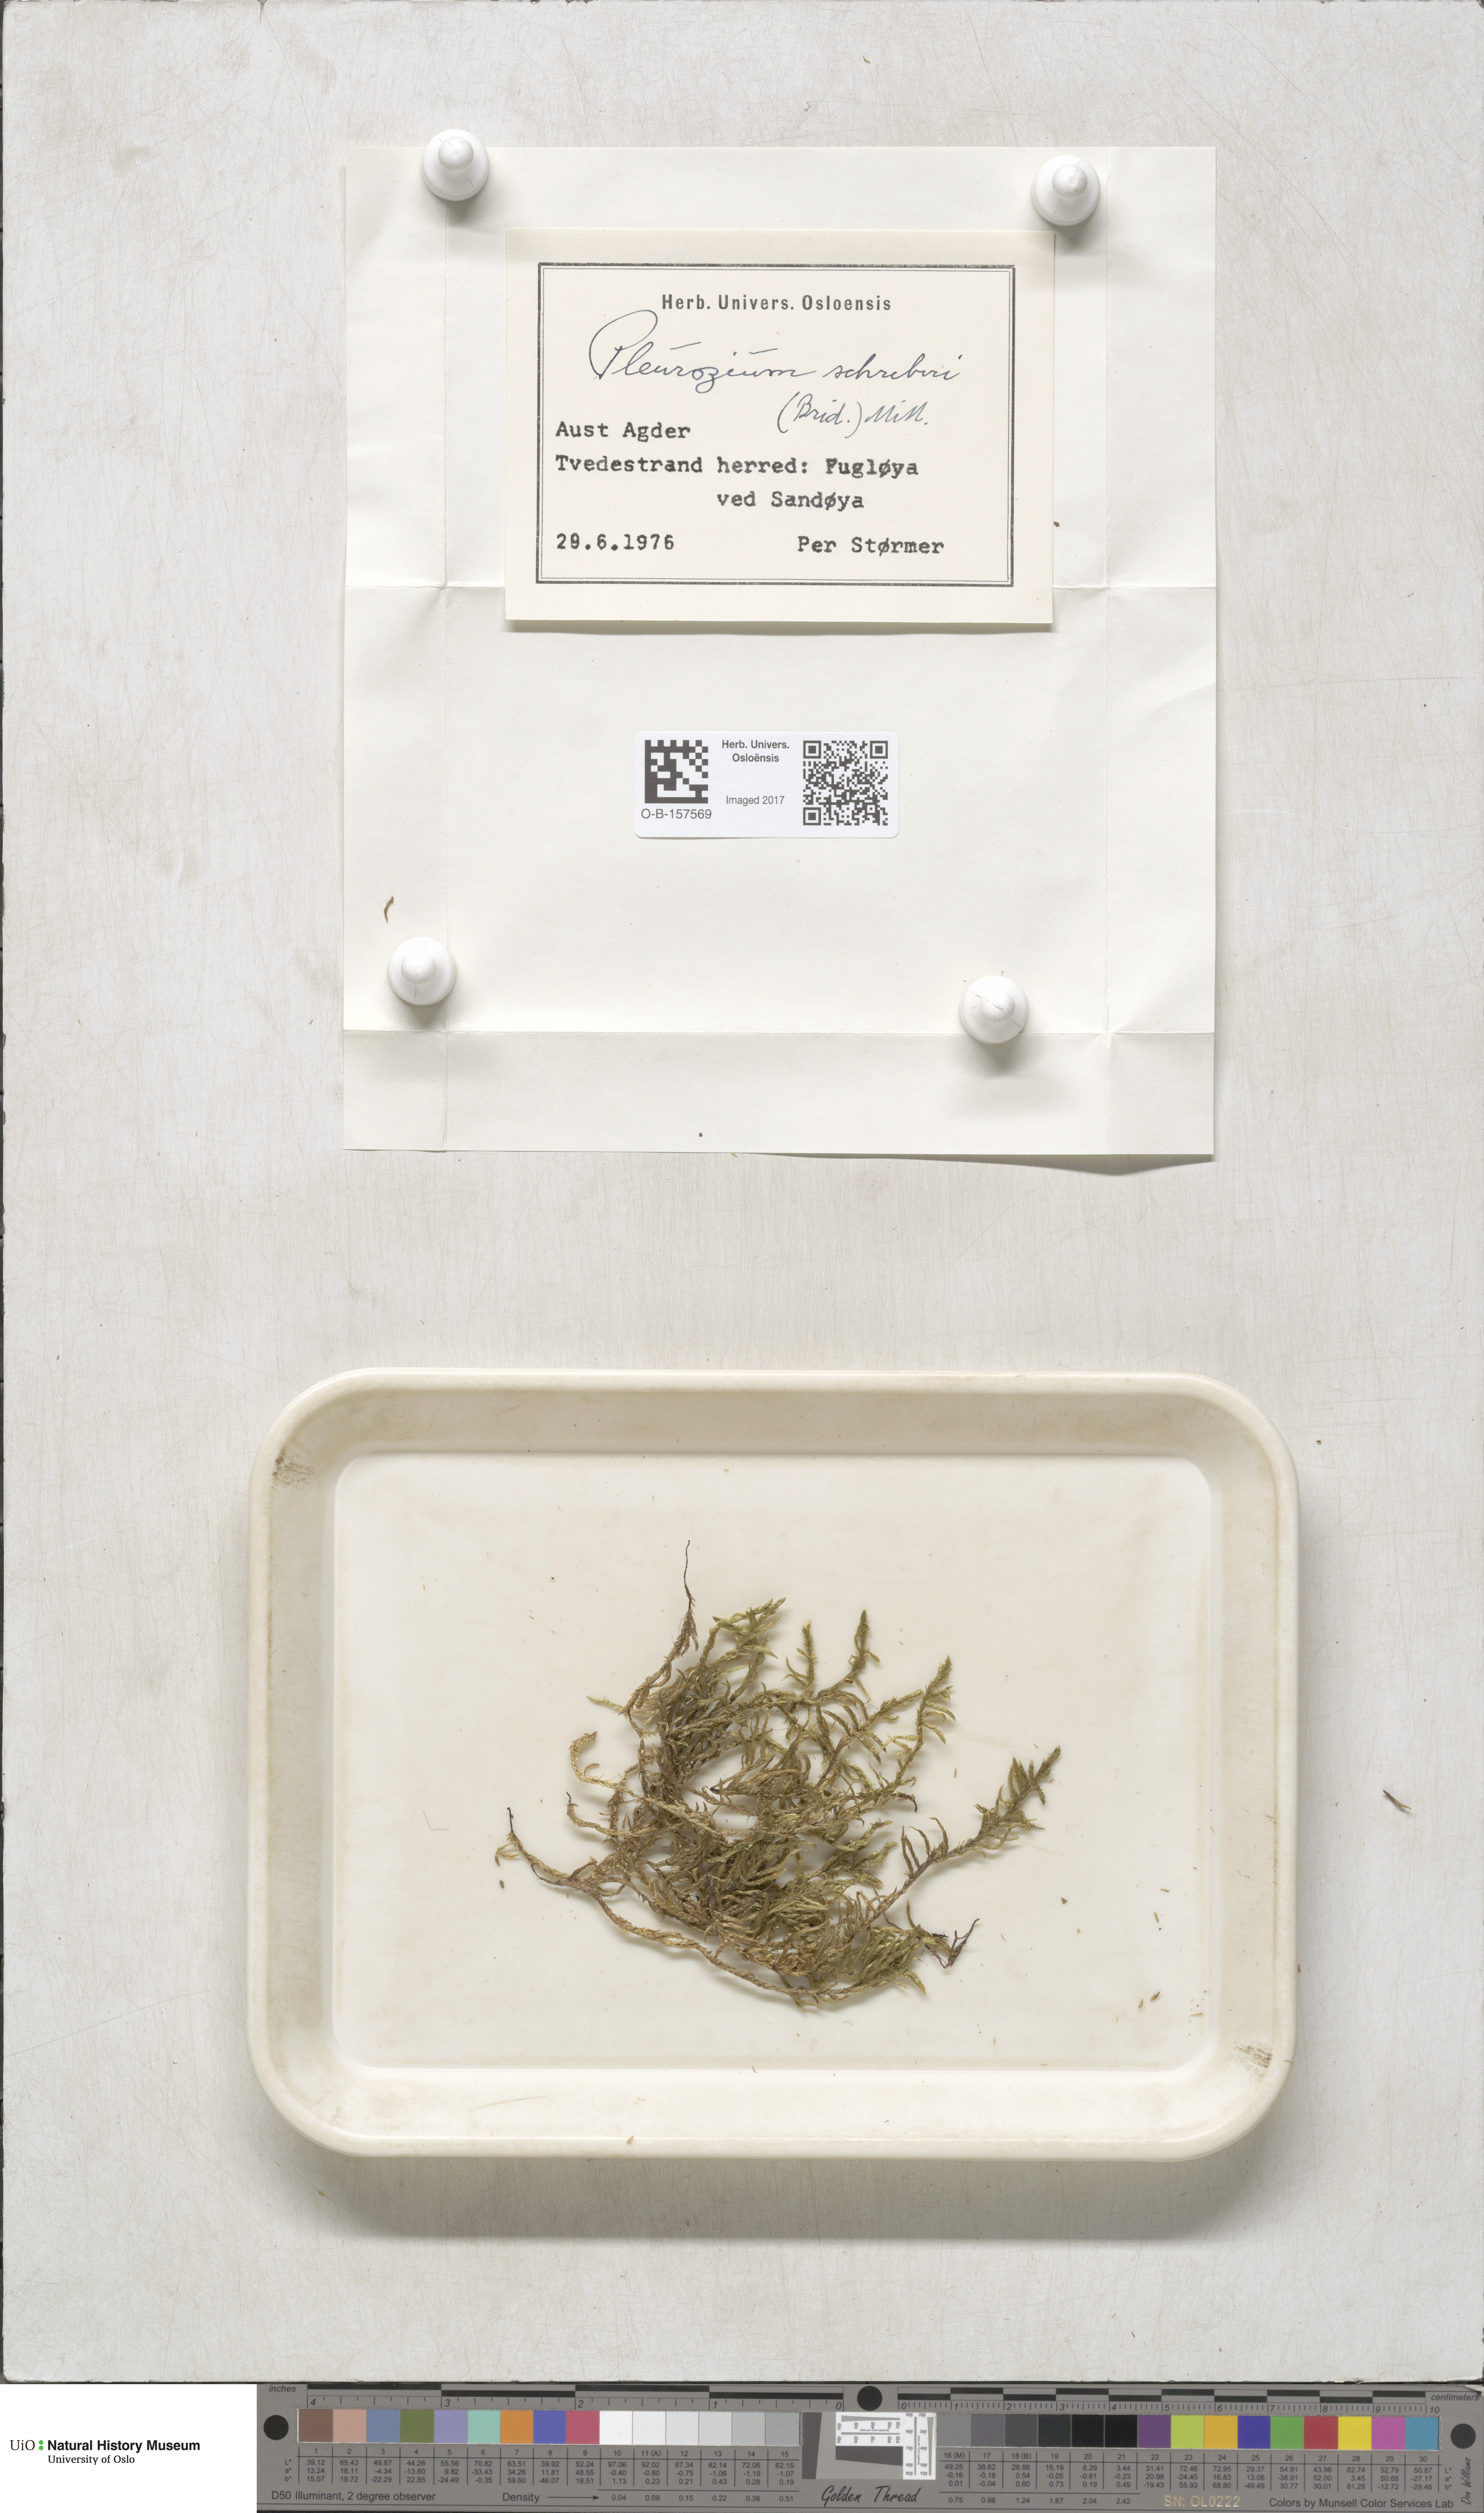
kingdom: Plantae
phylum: Bryophyta
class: Bryopsida
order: Hypnales
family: Hylocomiaceae
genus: Pleurozium
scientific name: Pleurozium schreberi
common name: Red-stemmed feather moss
